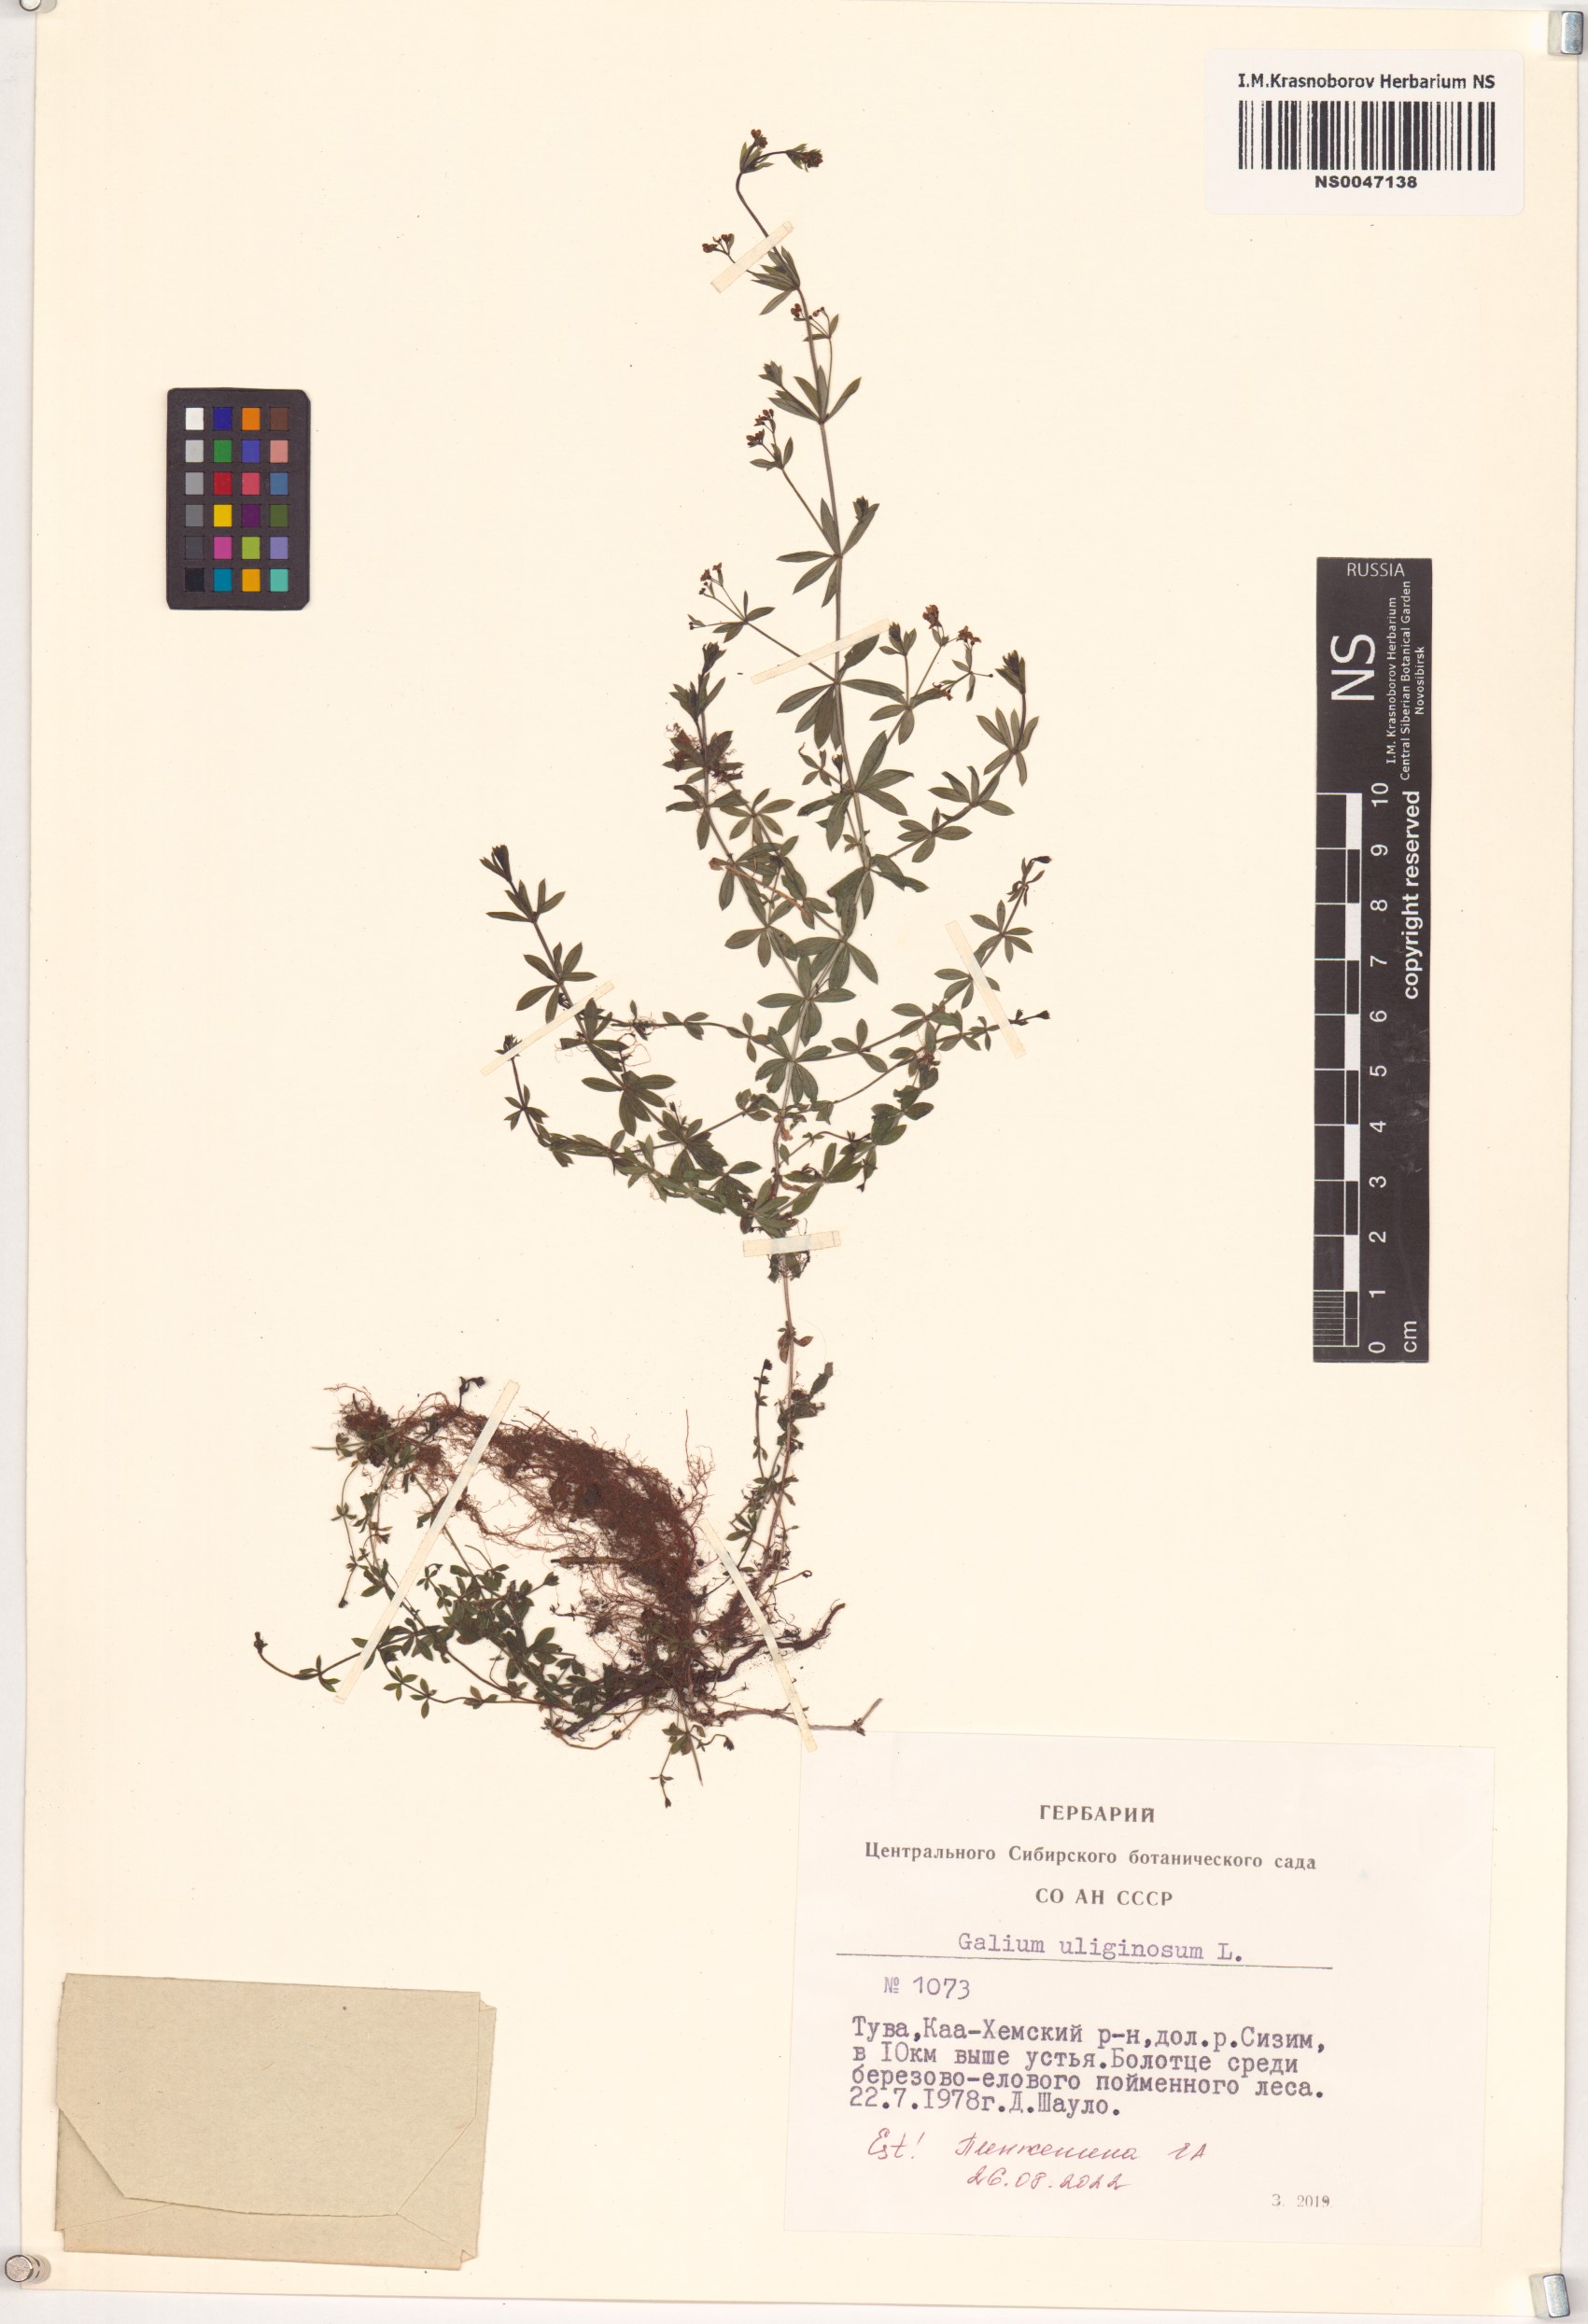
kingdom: Plantae
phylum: Tracheophyta
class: Magnoliopsida
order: Gentianales
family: Rubiaceae
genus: Galium
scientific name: Galium uliginosum
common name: Fen bedstraw
